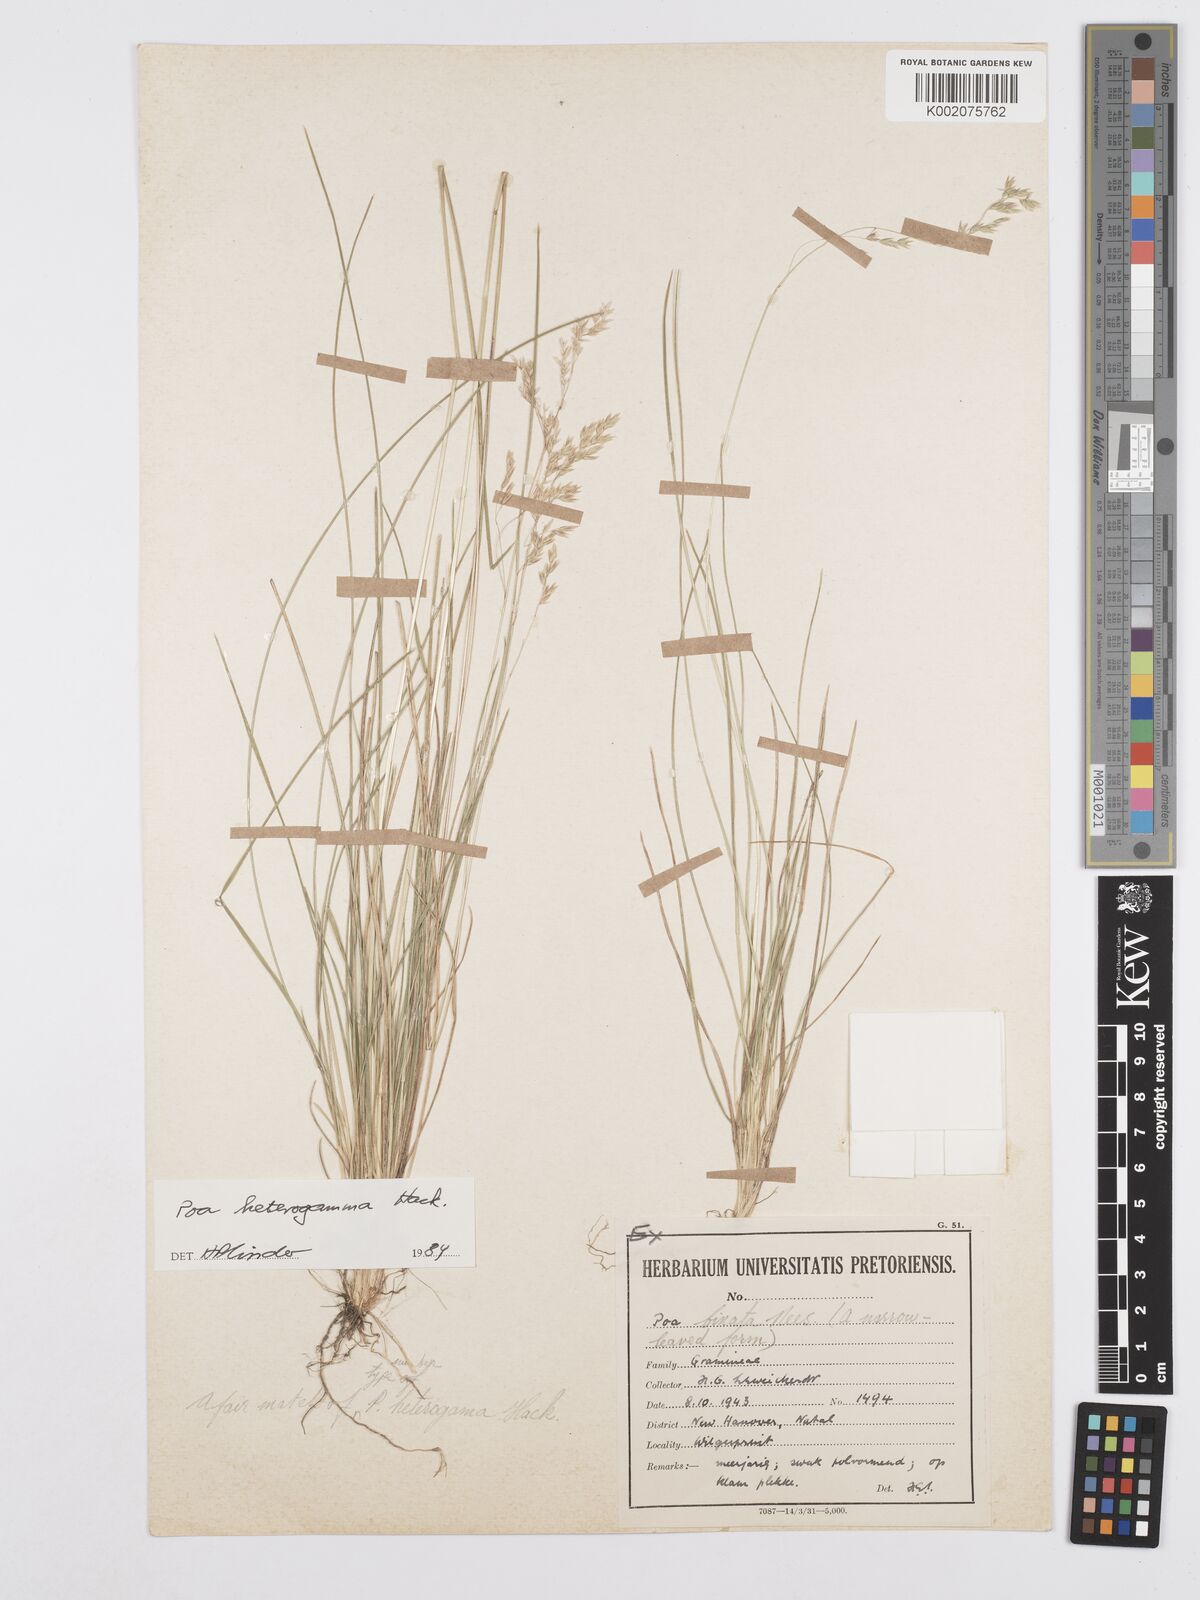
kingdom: Plantae
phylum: Tracheophyta
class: Liliopsida
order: Poales
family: Poaceae
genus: Poa
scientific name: Poa binata
